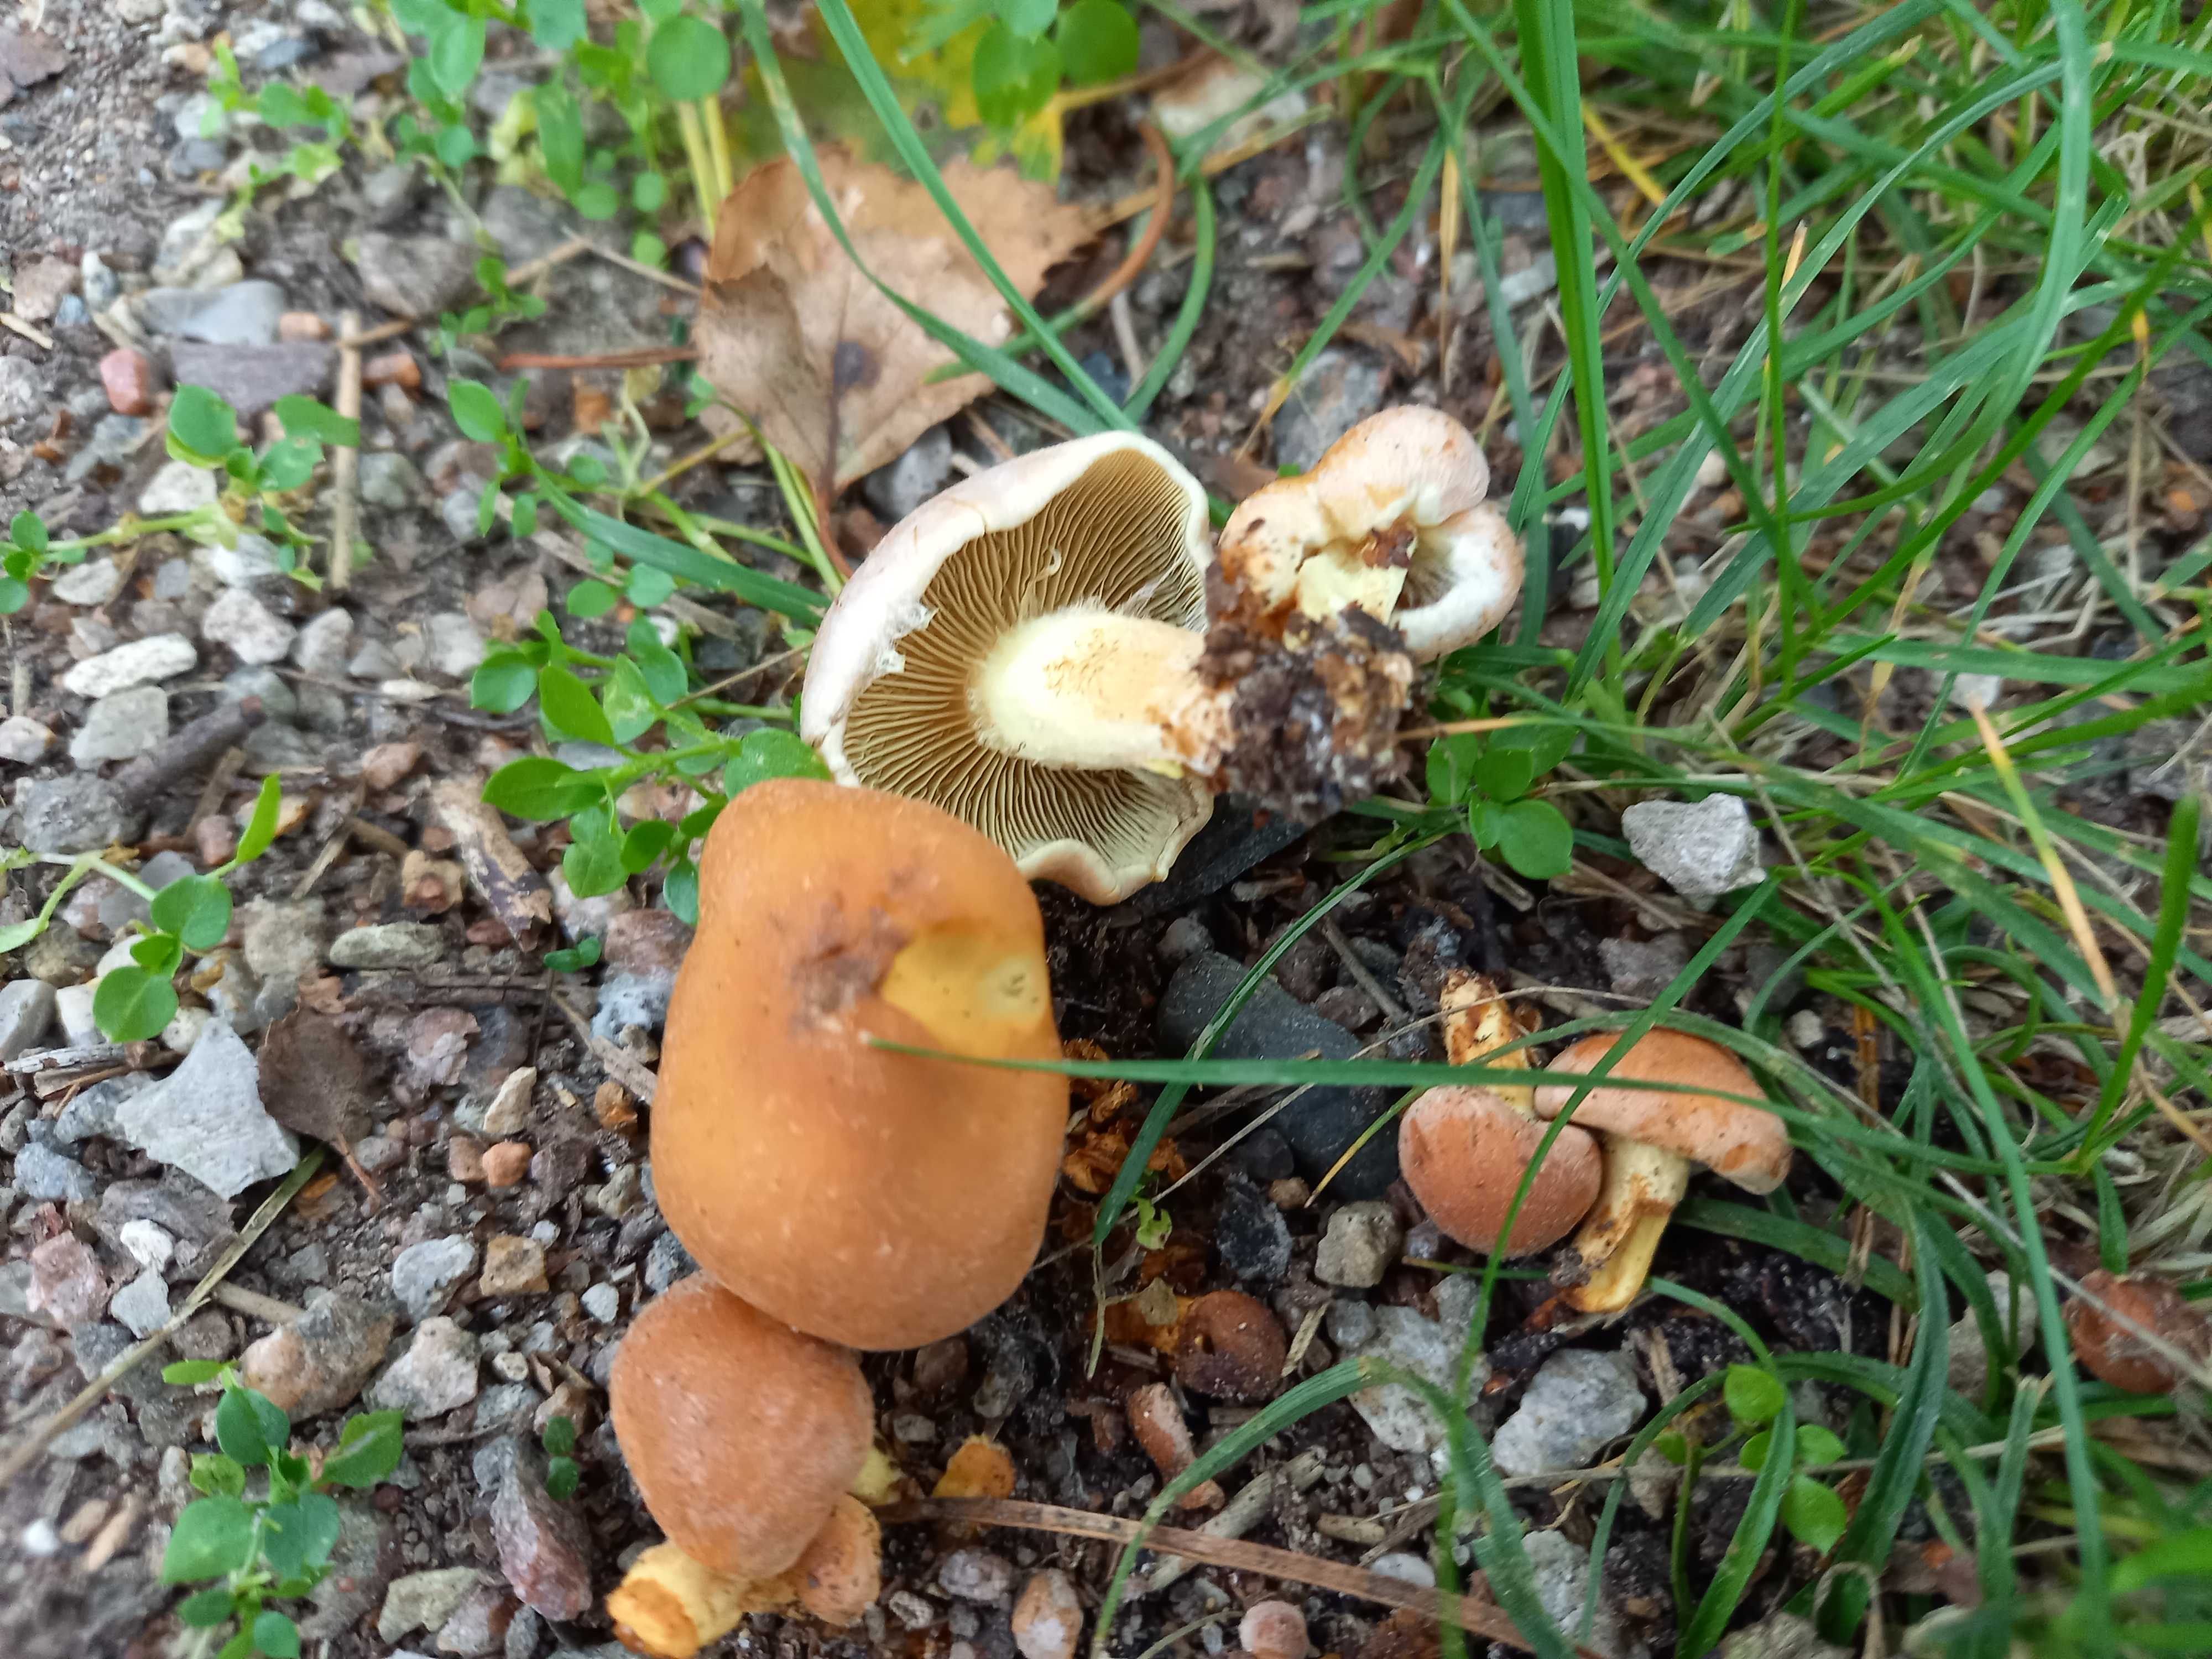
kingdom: Fungi
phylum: Basidiomycota
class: Agaricomycetes
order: Agaricales
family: Strophariaceae
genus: Hypholoma
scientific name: Hypholoma fasciculare
